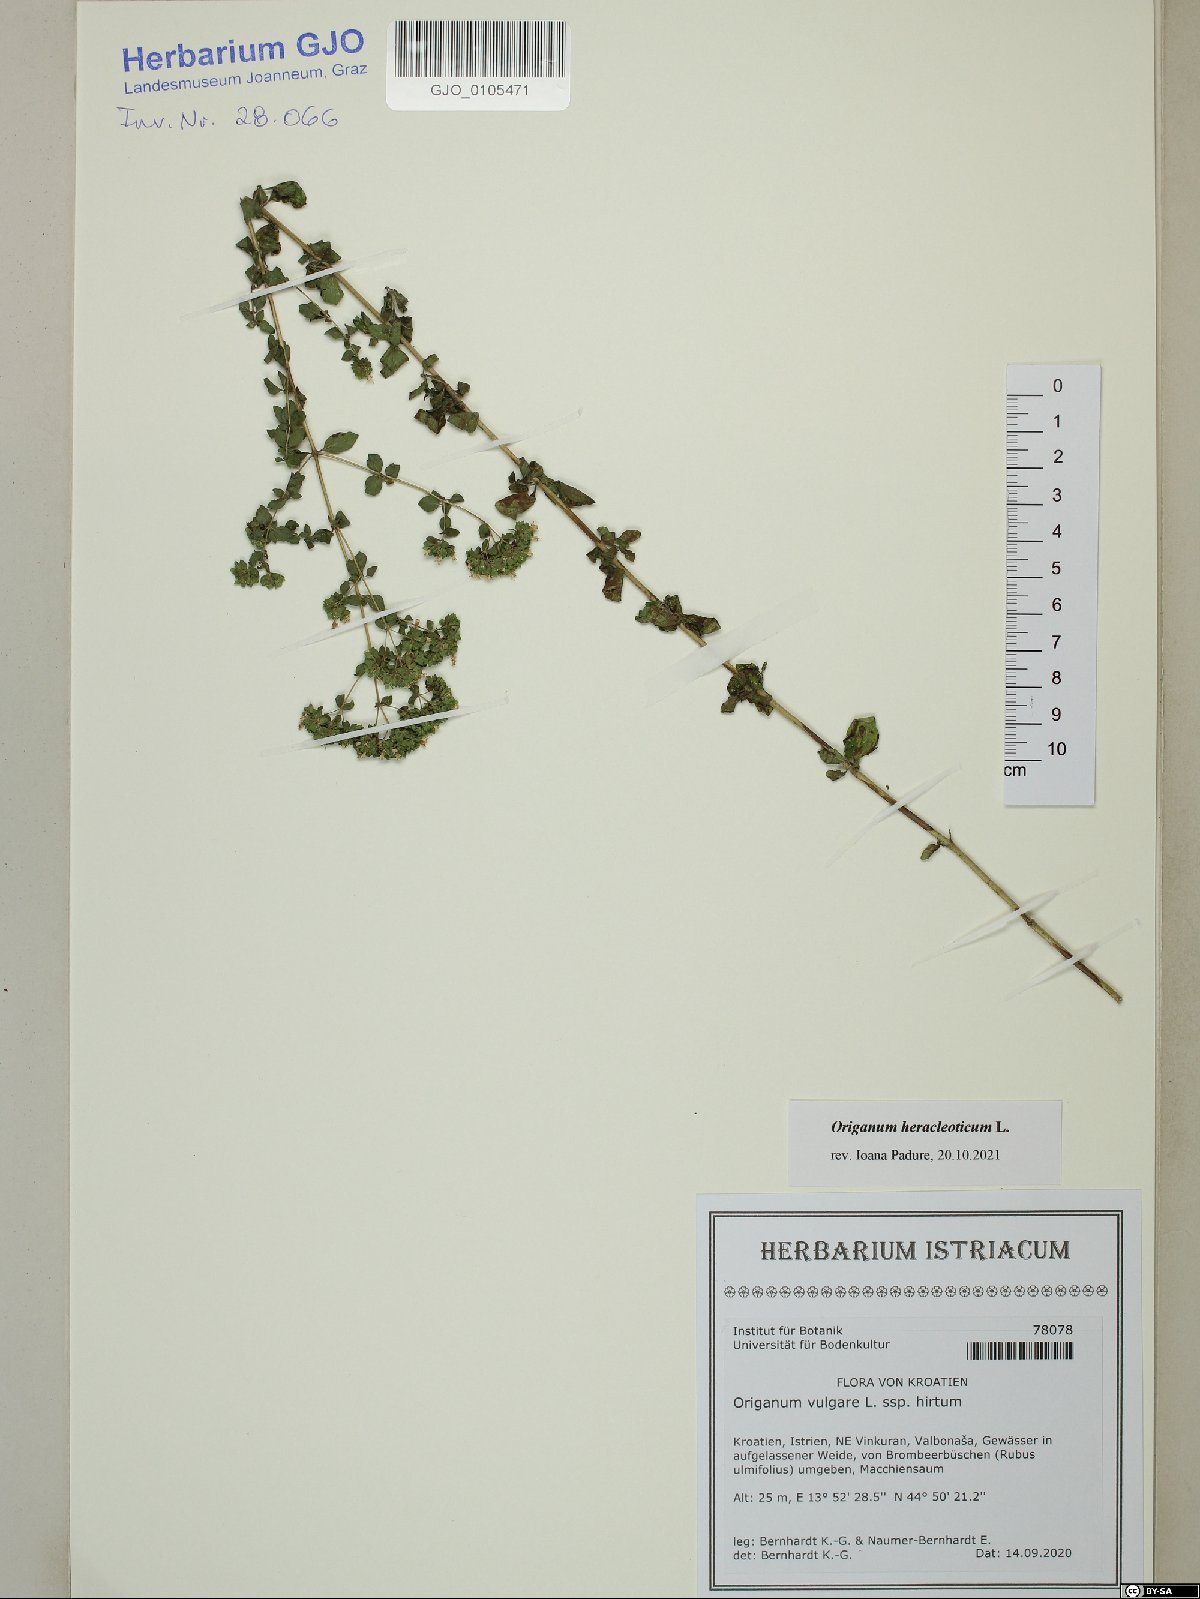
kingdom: Plantae
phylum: Tracheophyta
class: Magnoliopsida
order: Lamiales
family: Lamiaceae
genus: Origanum
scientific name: Origanum vulgare
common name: Wild marjoram
